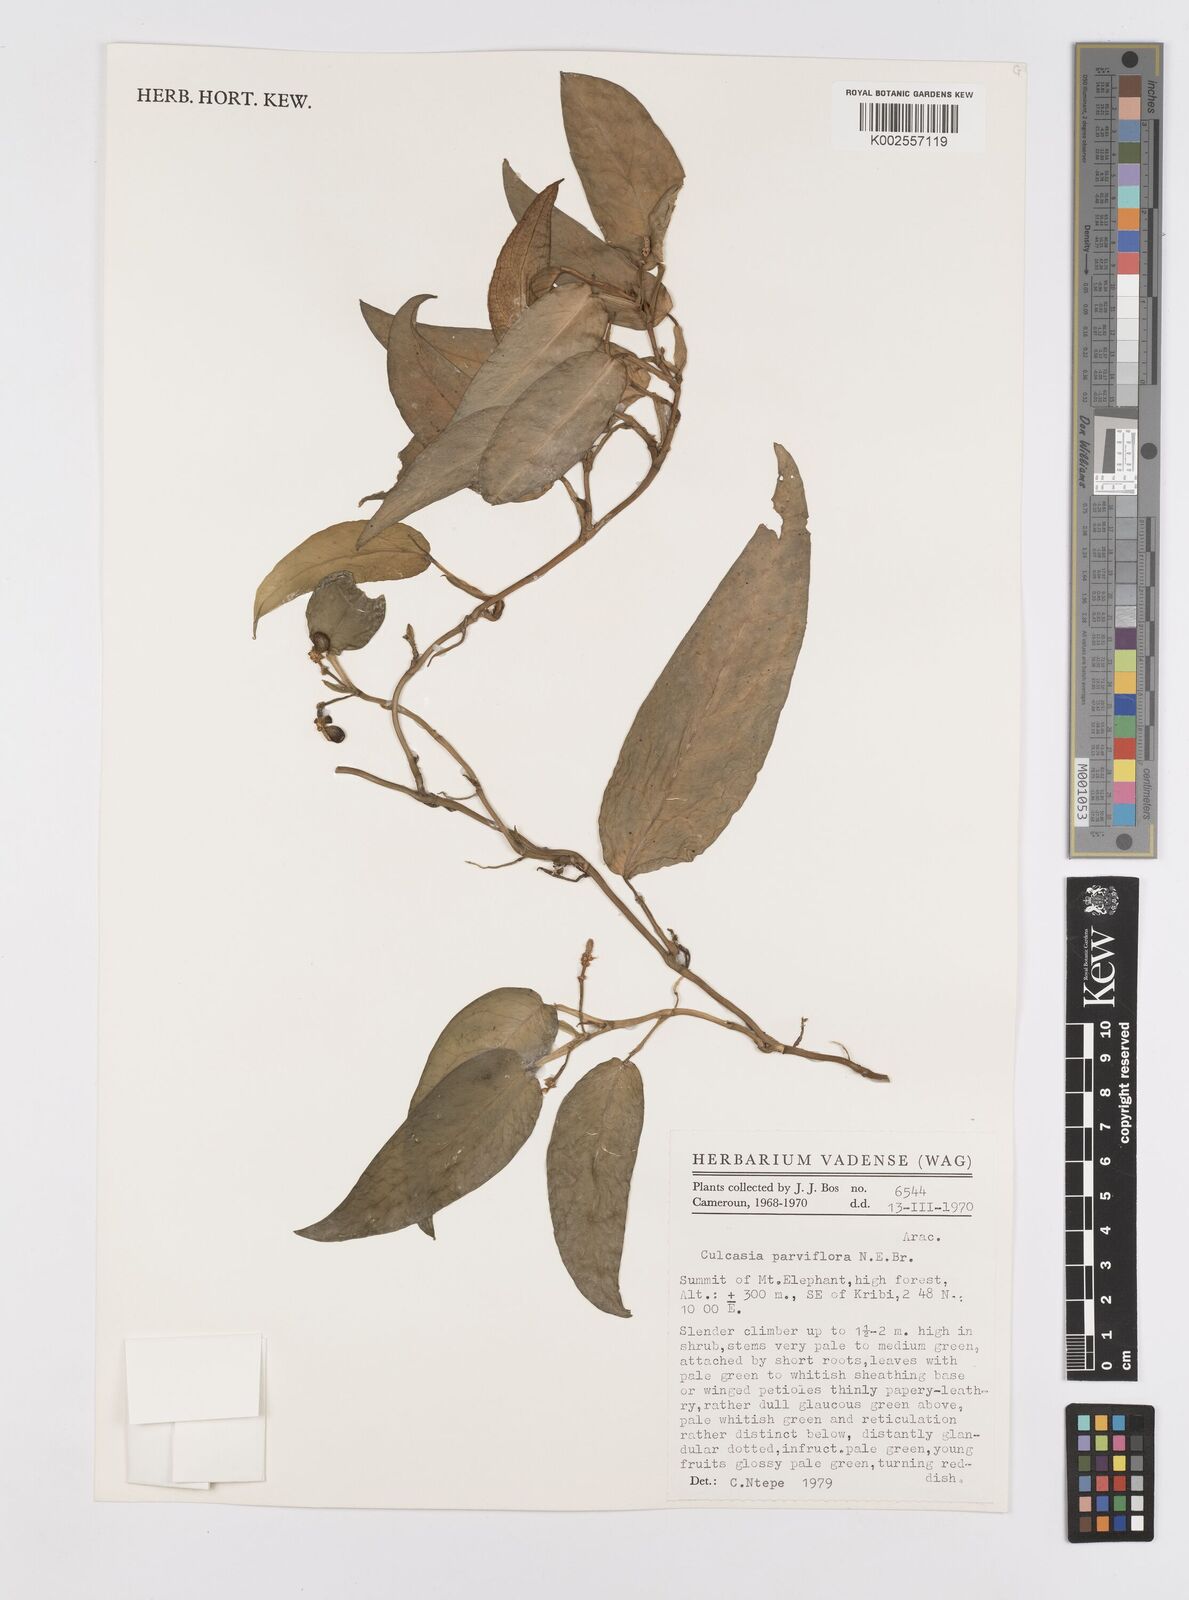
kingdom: Plantae
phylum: Tracheophyta
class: Liliopsida
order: Alismatales
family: Araceae
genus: Culcasia
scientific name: Culcasia parviflora
